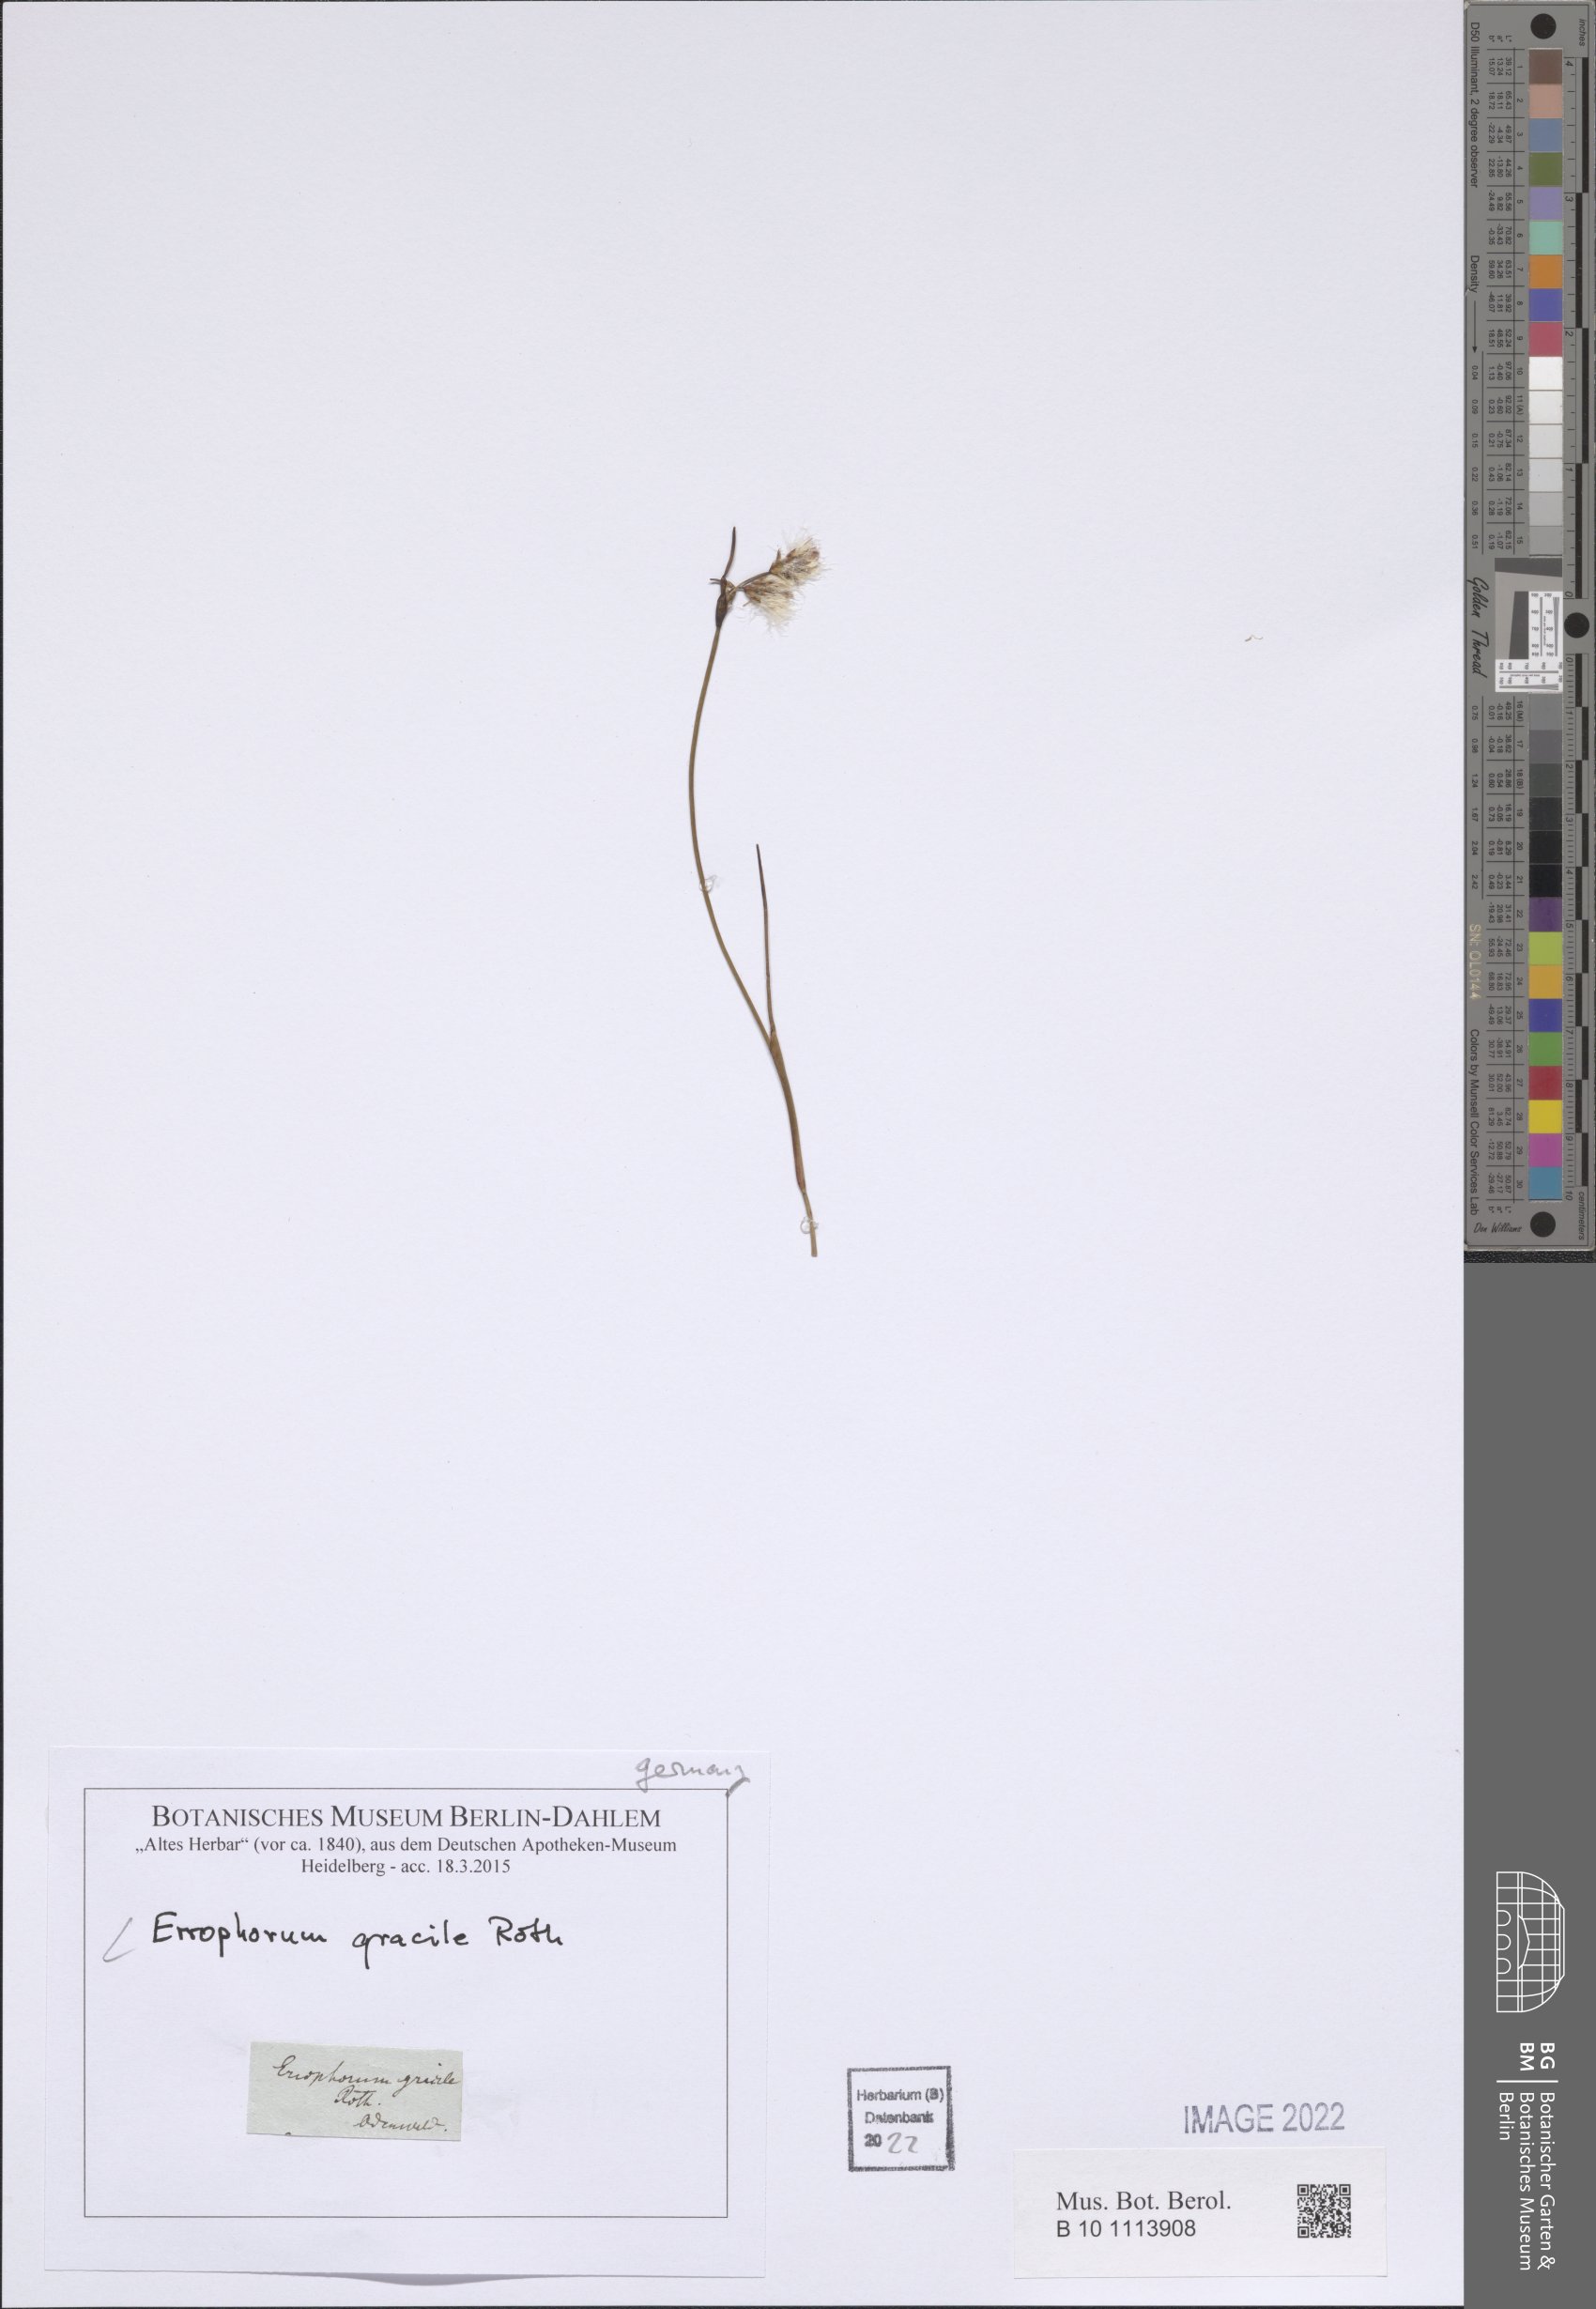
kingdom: Plantae
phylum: Tracheophyta
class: Liliopsida
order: Poales
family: Cyperaceae
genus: Eriophorum
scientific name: Eriophorum gracile
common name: Slender cottongrass
